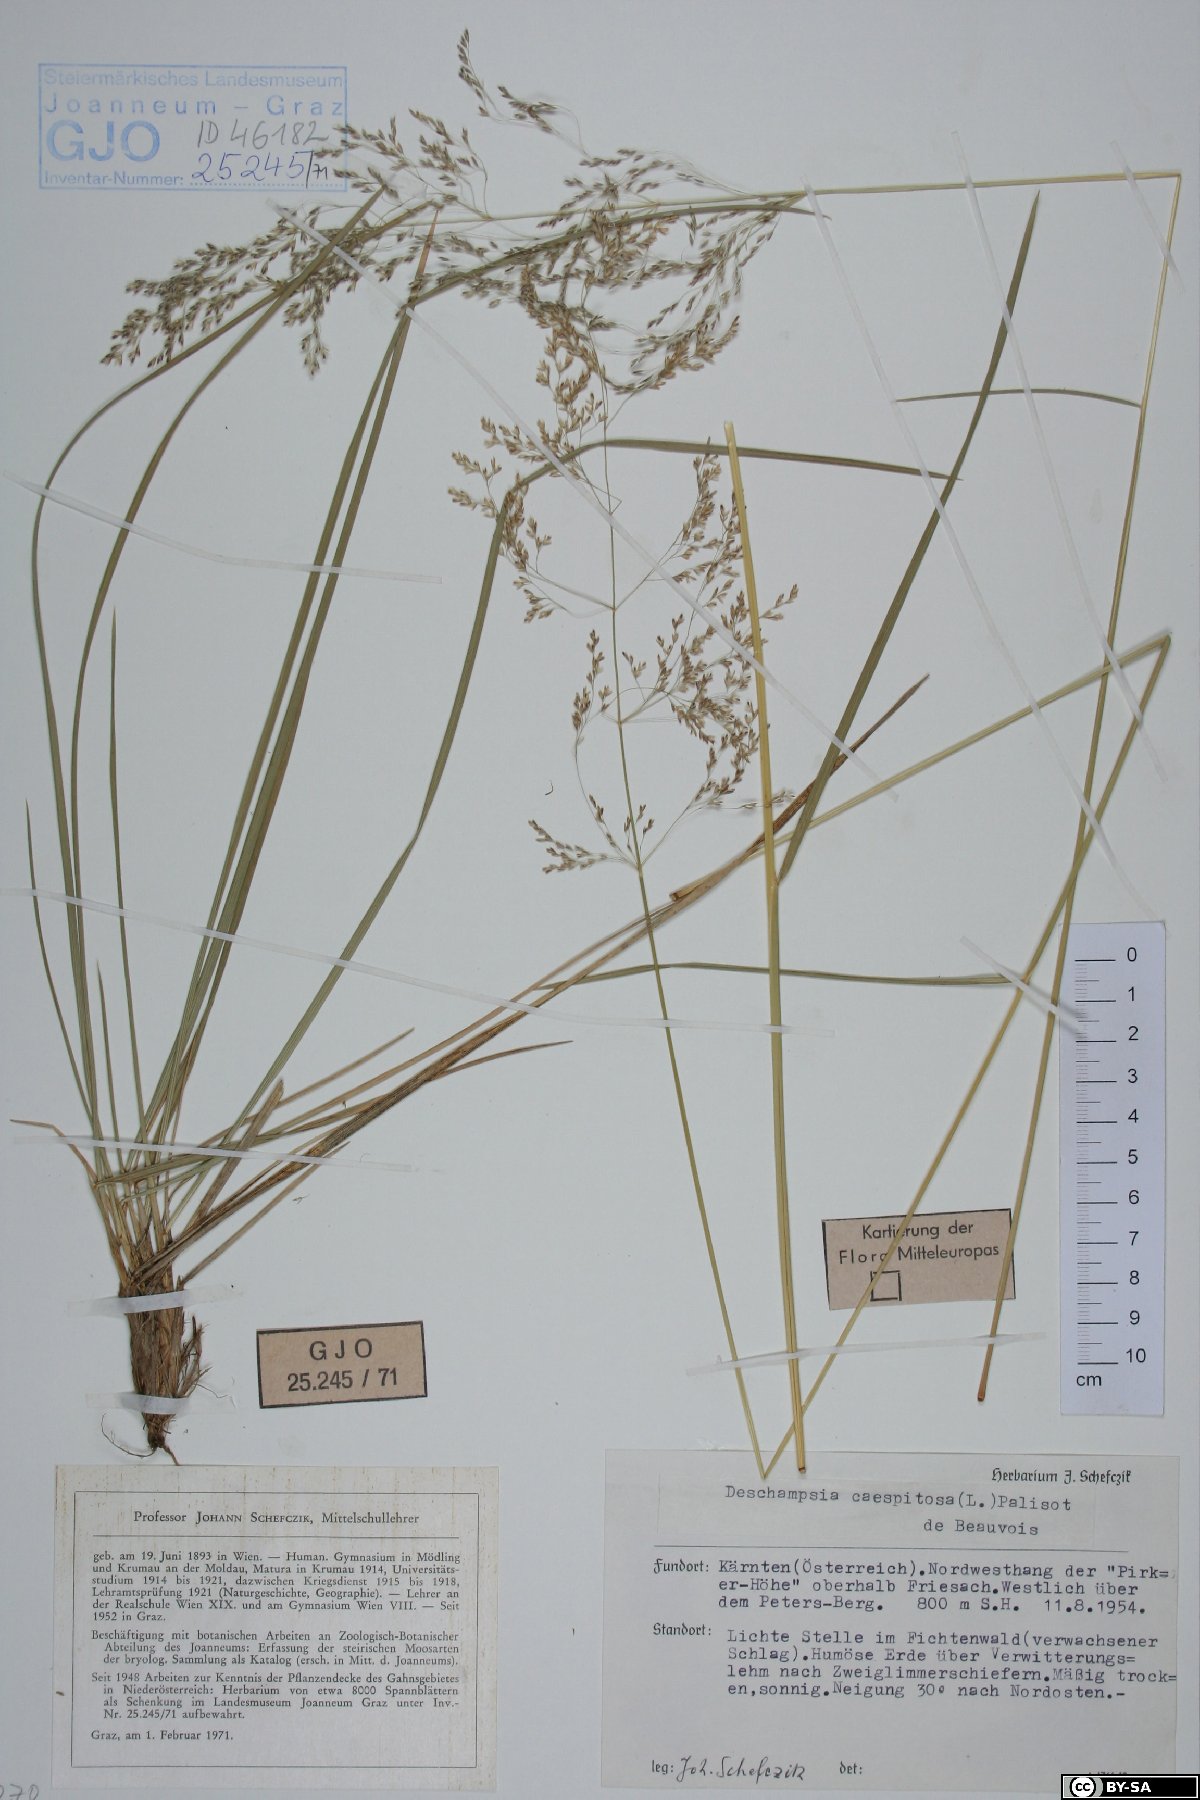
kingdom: Plantae
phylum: Tracheophyta
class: Liliopsida
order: Poales
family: Poaceae
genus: Deschampsia
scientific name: Deschampsia cespitosa
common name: Tufted hair-grass
